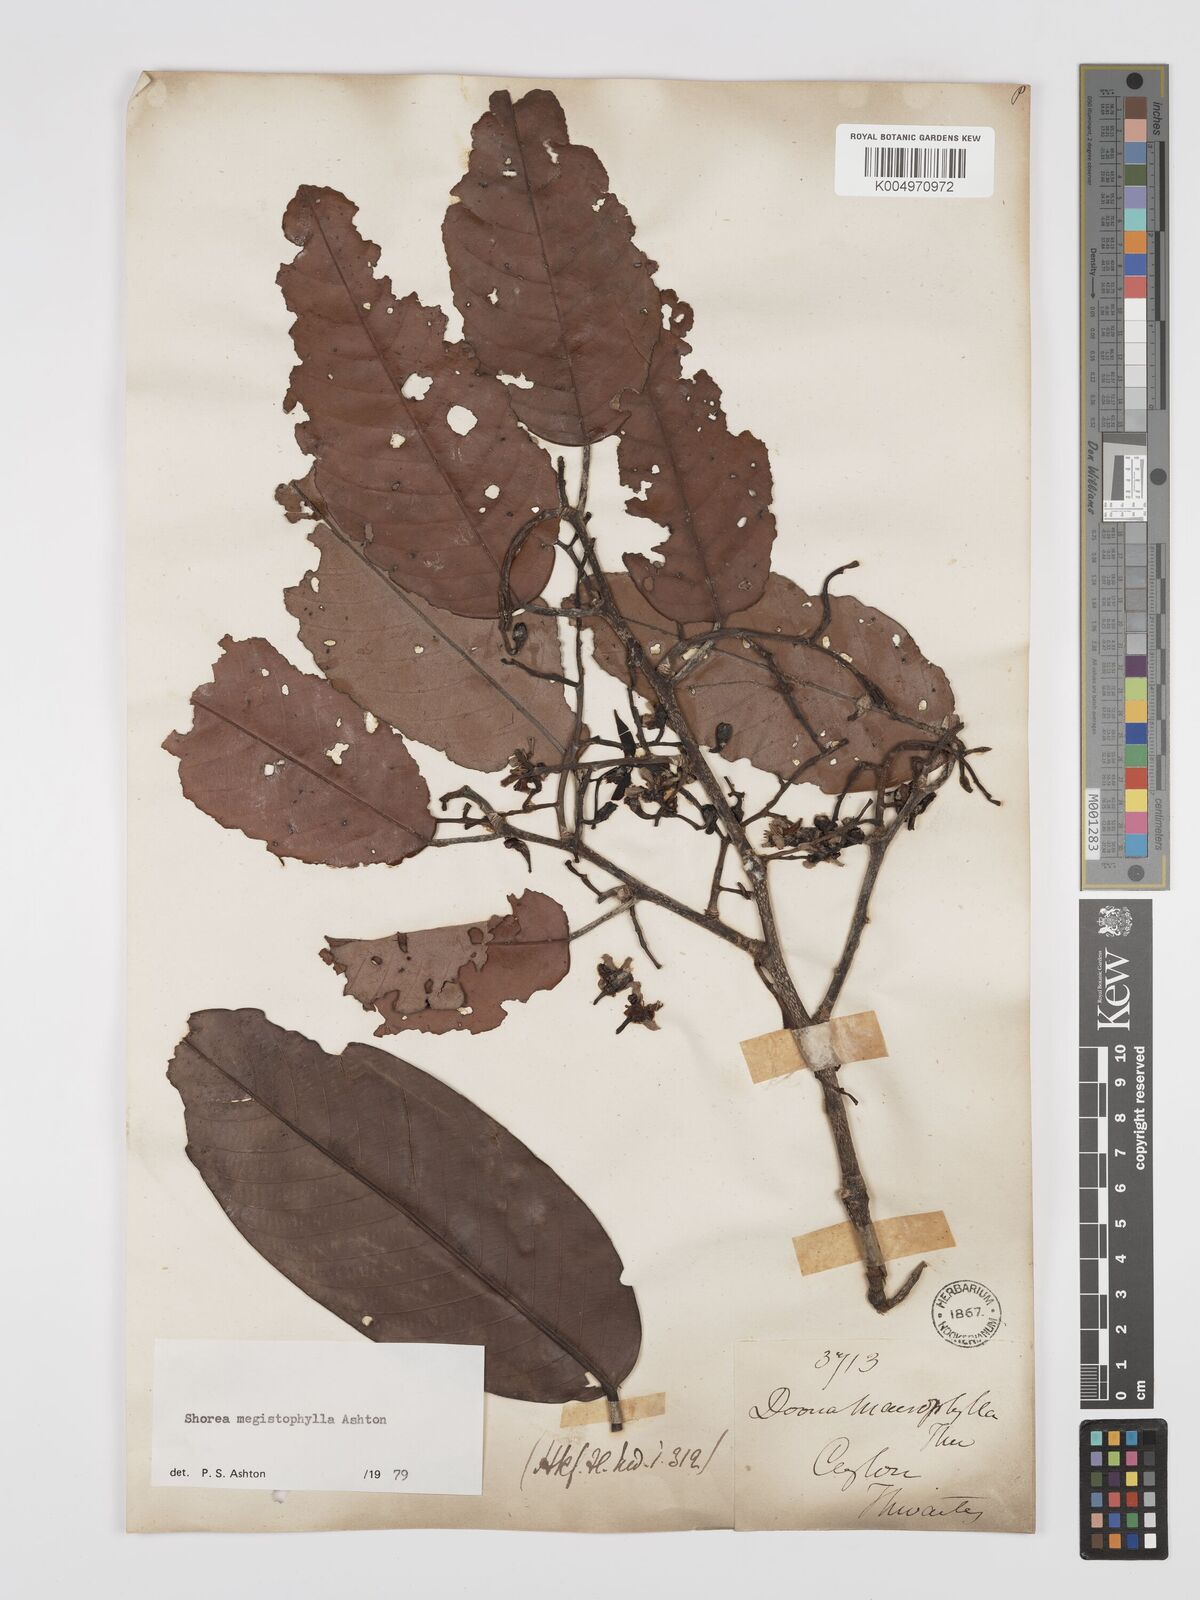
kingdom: Plantae
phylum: Tracheophyta
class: Magnoliopsida
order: Malvales
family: Dipterocarpaceae
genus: Doona
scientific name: Doona macrophylla
